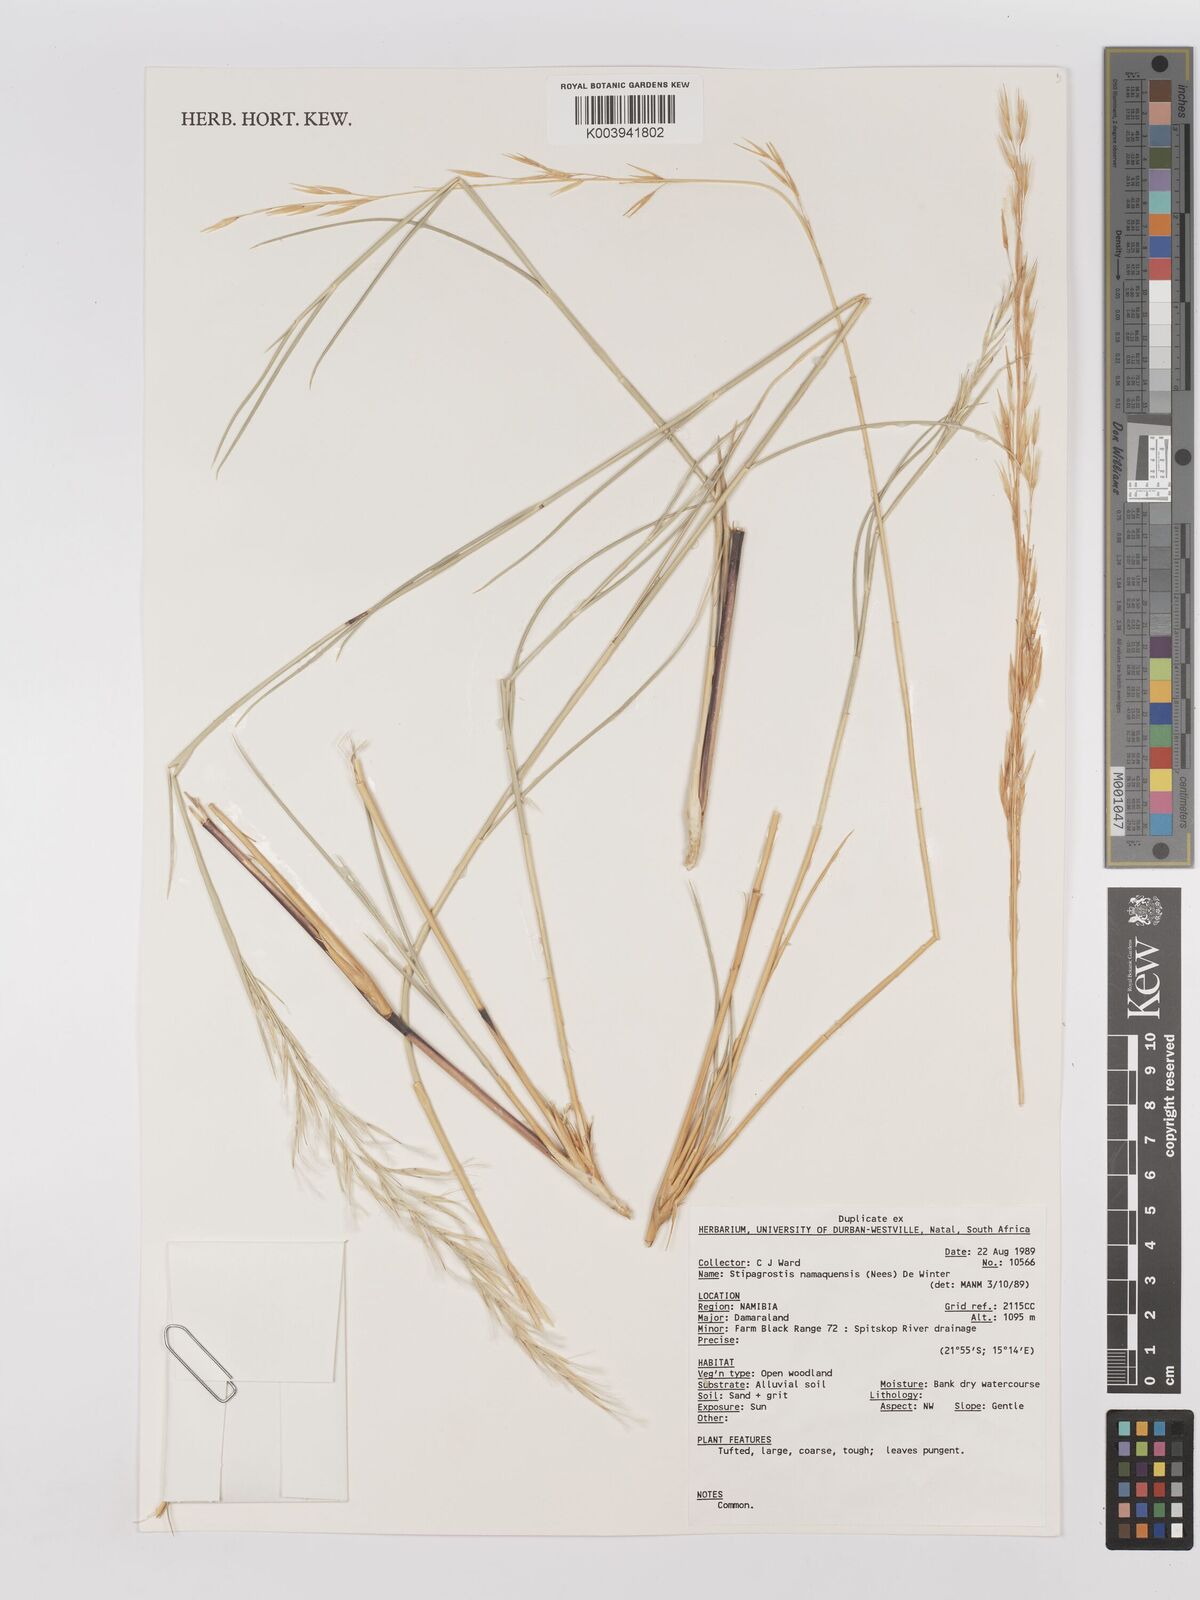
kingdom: Plantae
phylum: Tracheophyta
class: Liliopsida
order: Poales
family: Poaceae
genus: Stipagrostis
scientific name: Stipagrostis namaquensis
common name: River bushman grass
